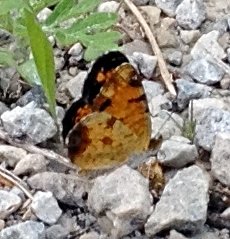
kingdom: Animalia
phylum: Arthropoda
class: Insecta
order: Lepidoptera
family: Nymphalidae
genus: Phyciodes
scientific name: Phyciodes tharos
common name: Pearl Crescent
